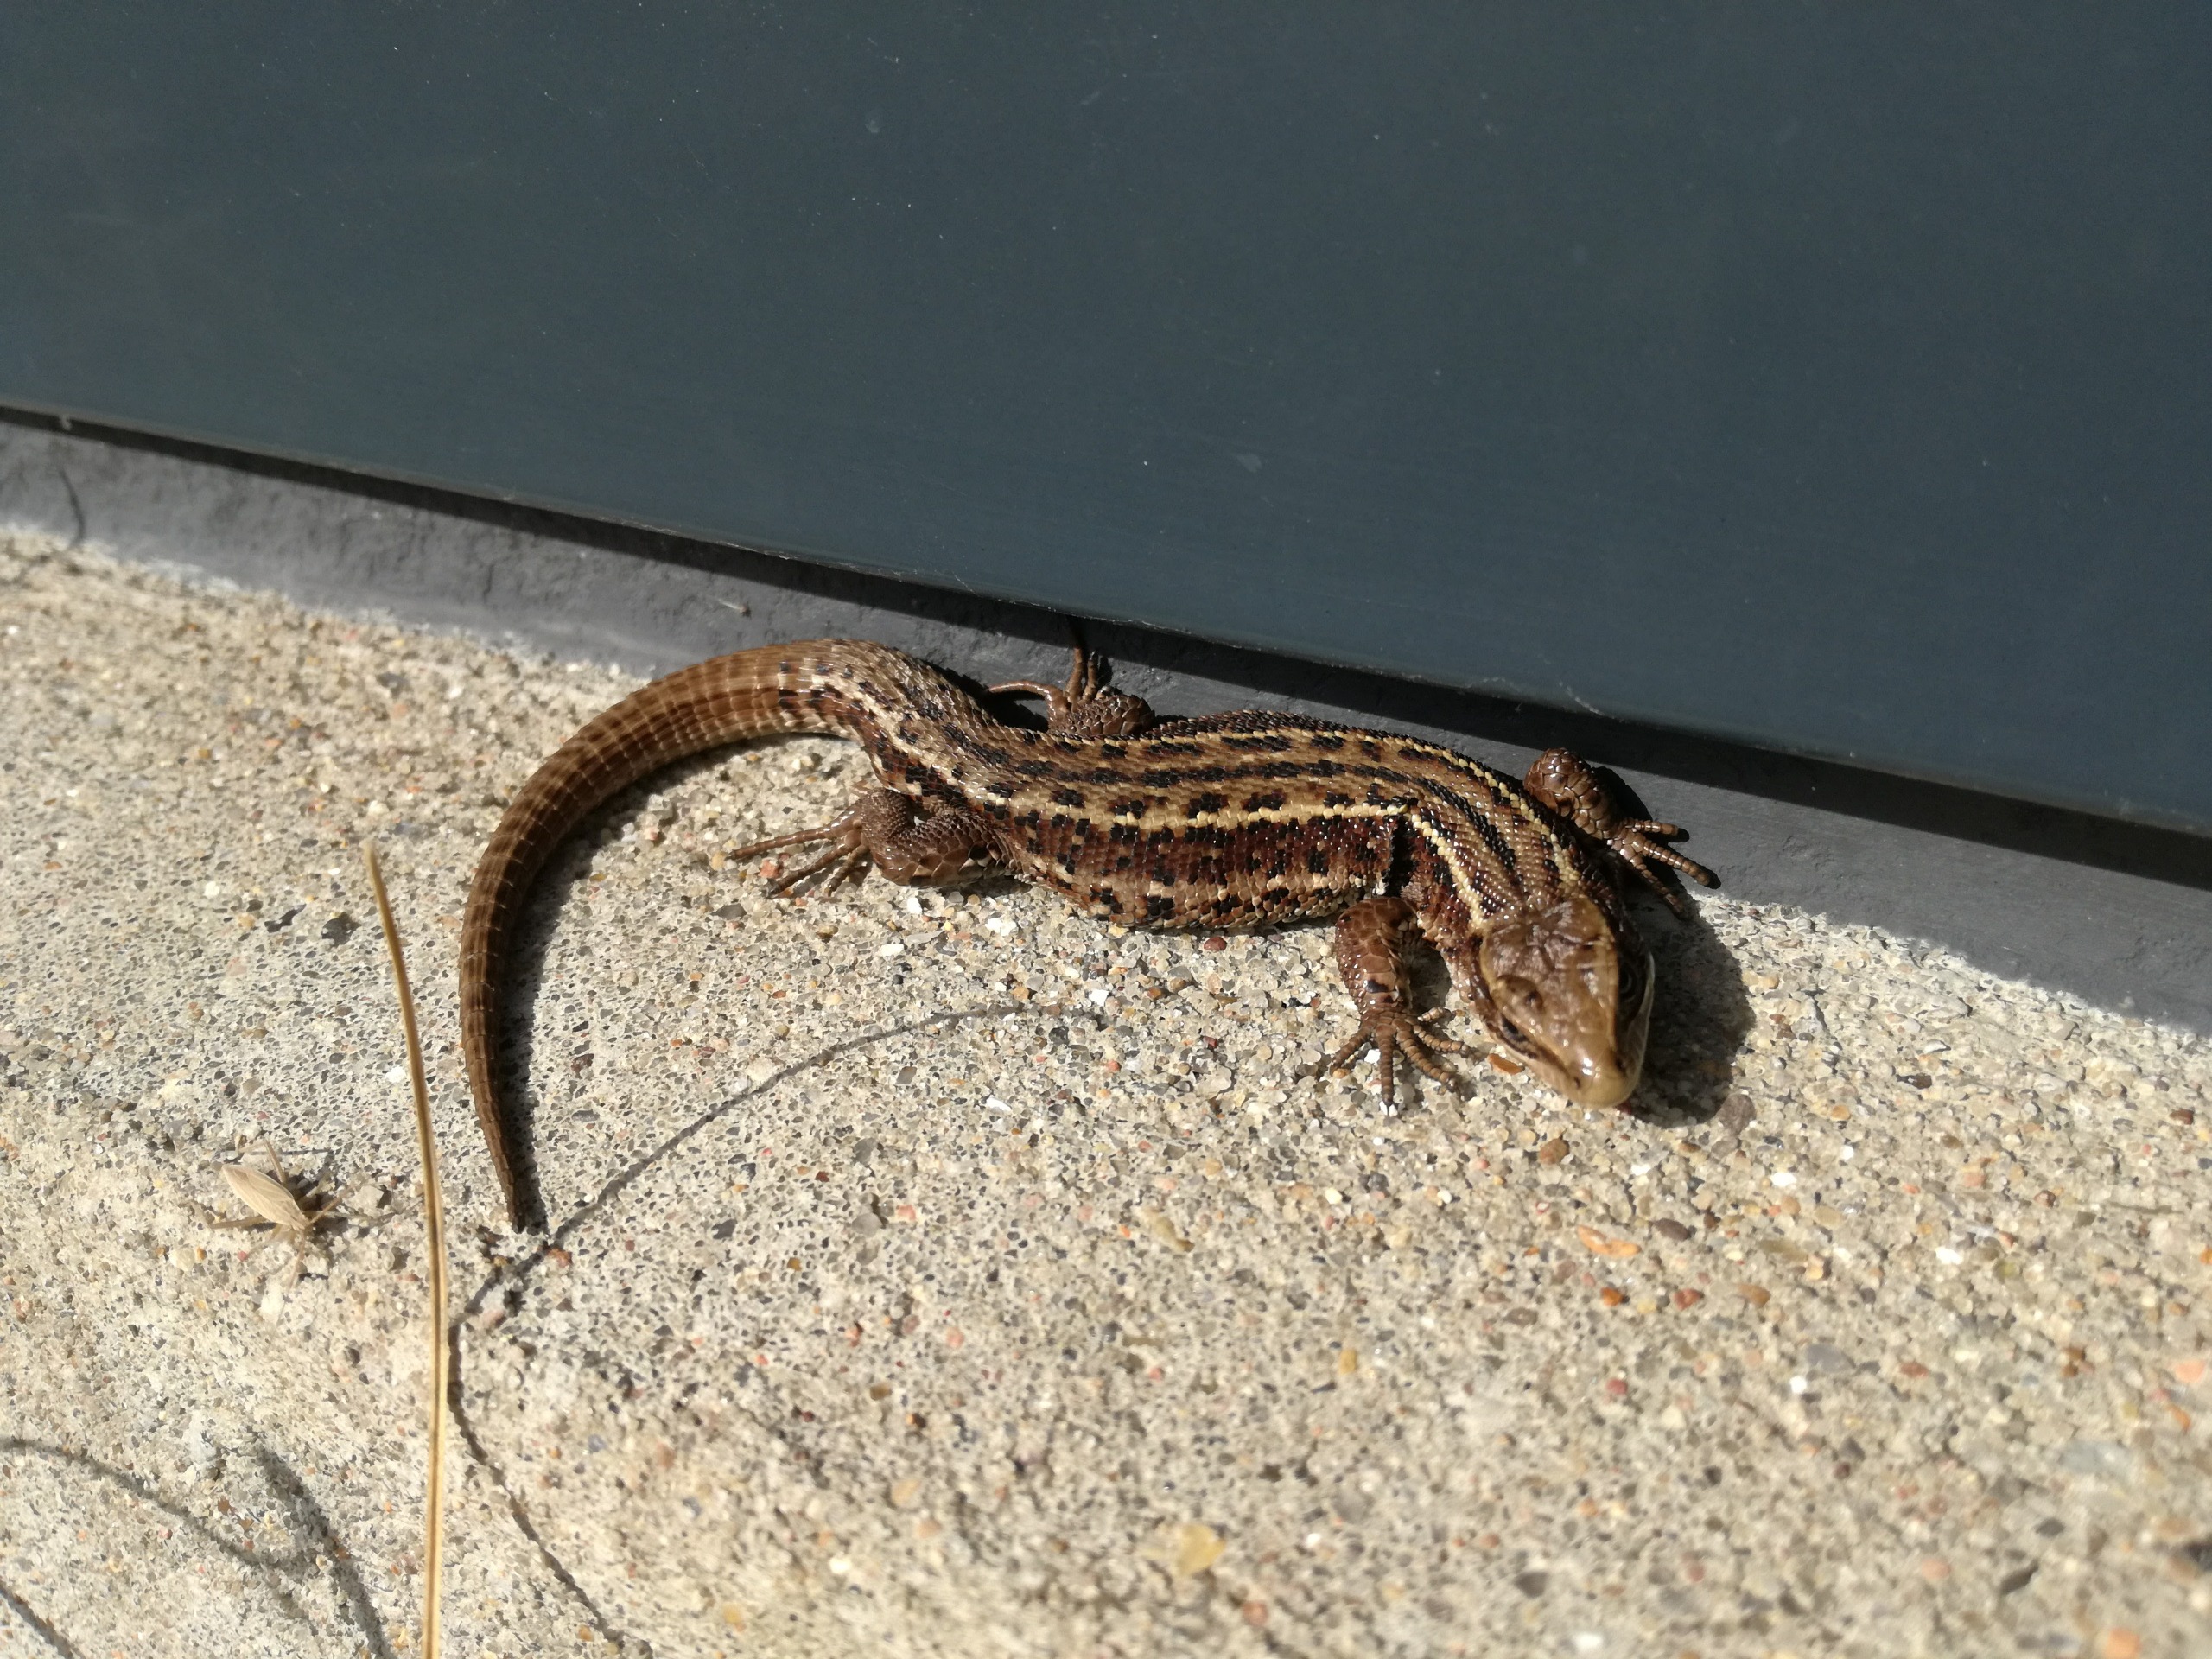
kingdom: Animalia
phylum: Chordata
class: Squamata
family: Lacertidae
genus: Zootoca
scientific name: Zootoca vivipara
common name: Skovfirben
